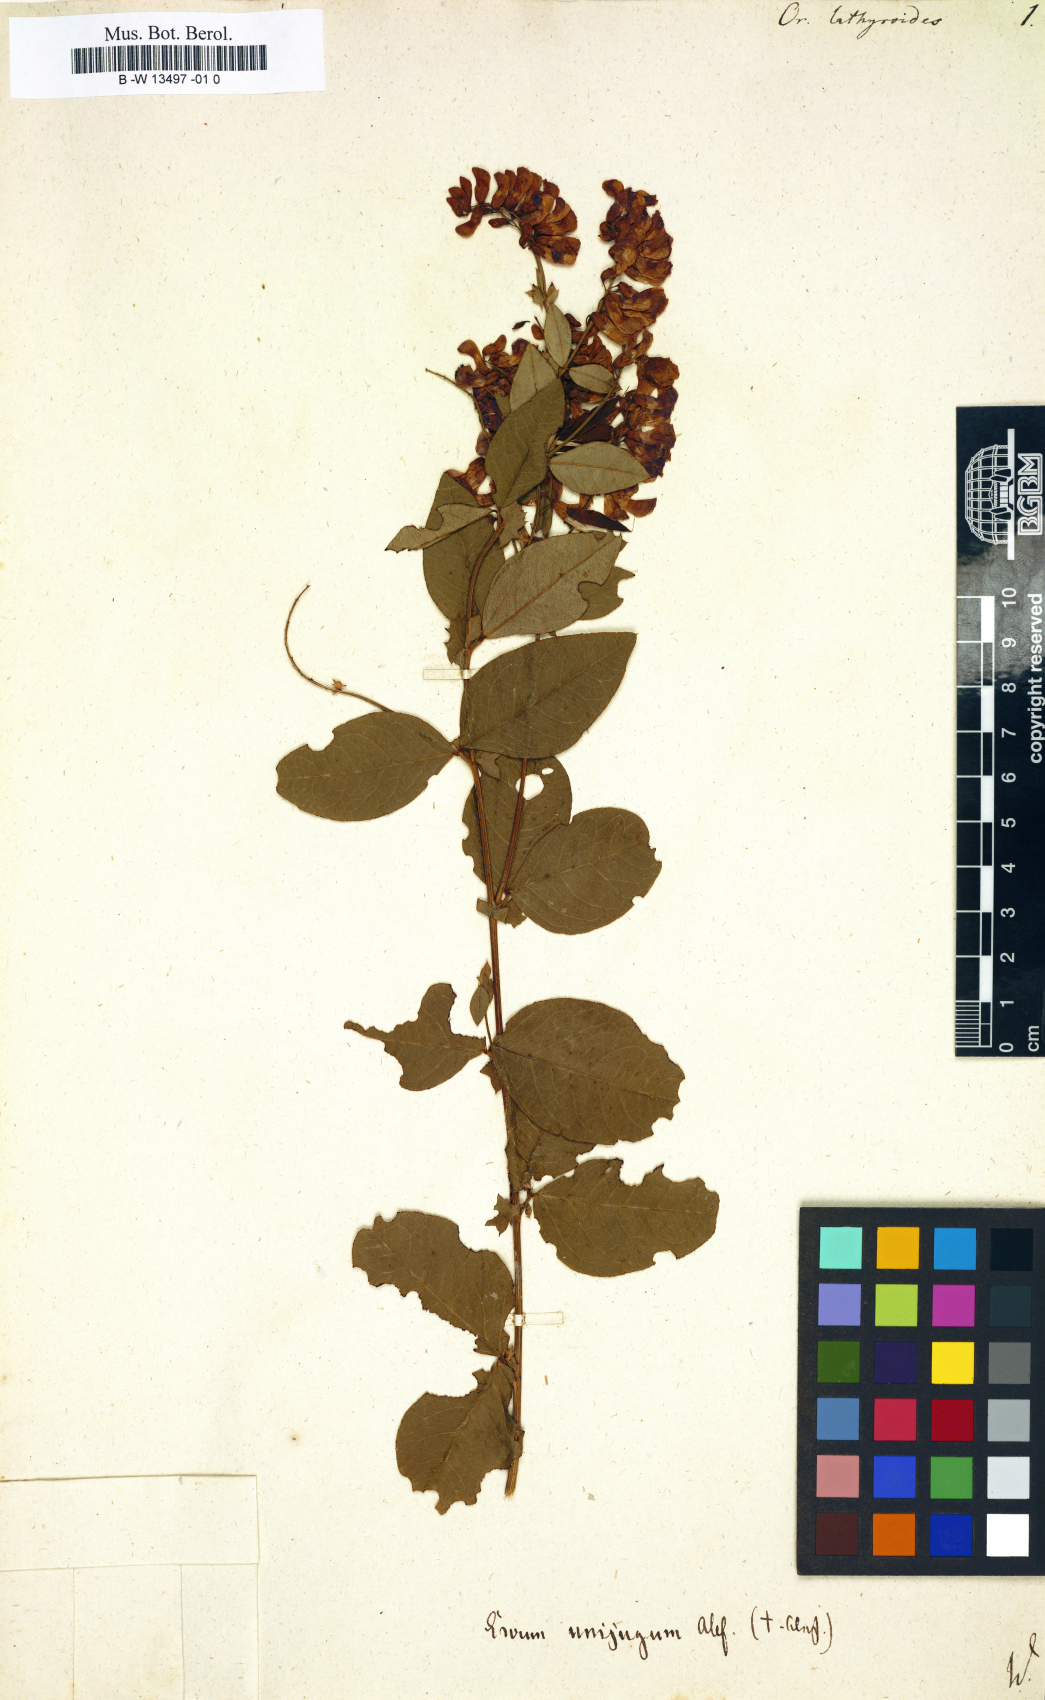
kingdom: Plantae
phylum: Tracheophyta
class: Magnoliopsida
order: Fabales
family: Fabaceae
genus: Vicia
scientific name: Vicia unijuga
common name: Two-leaf vetch
